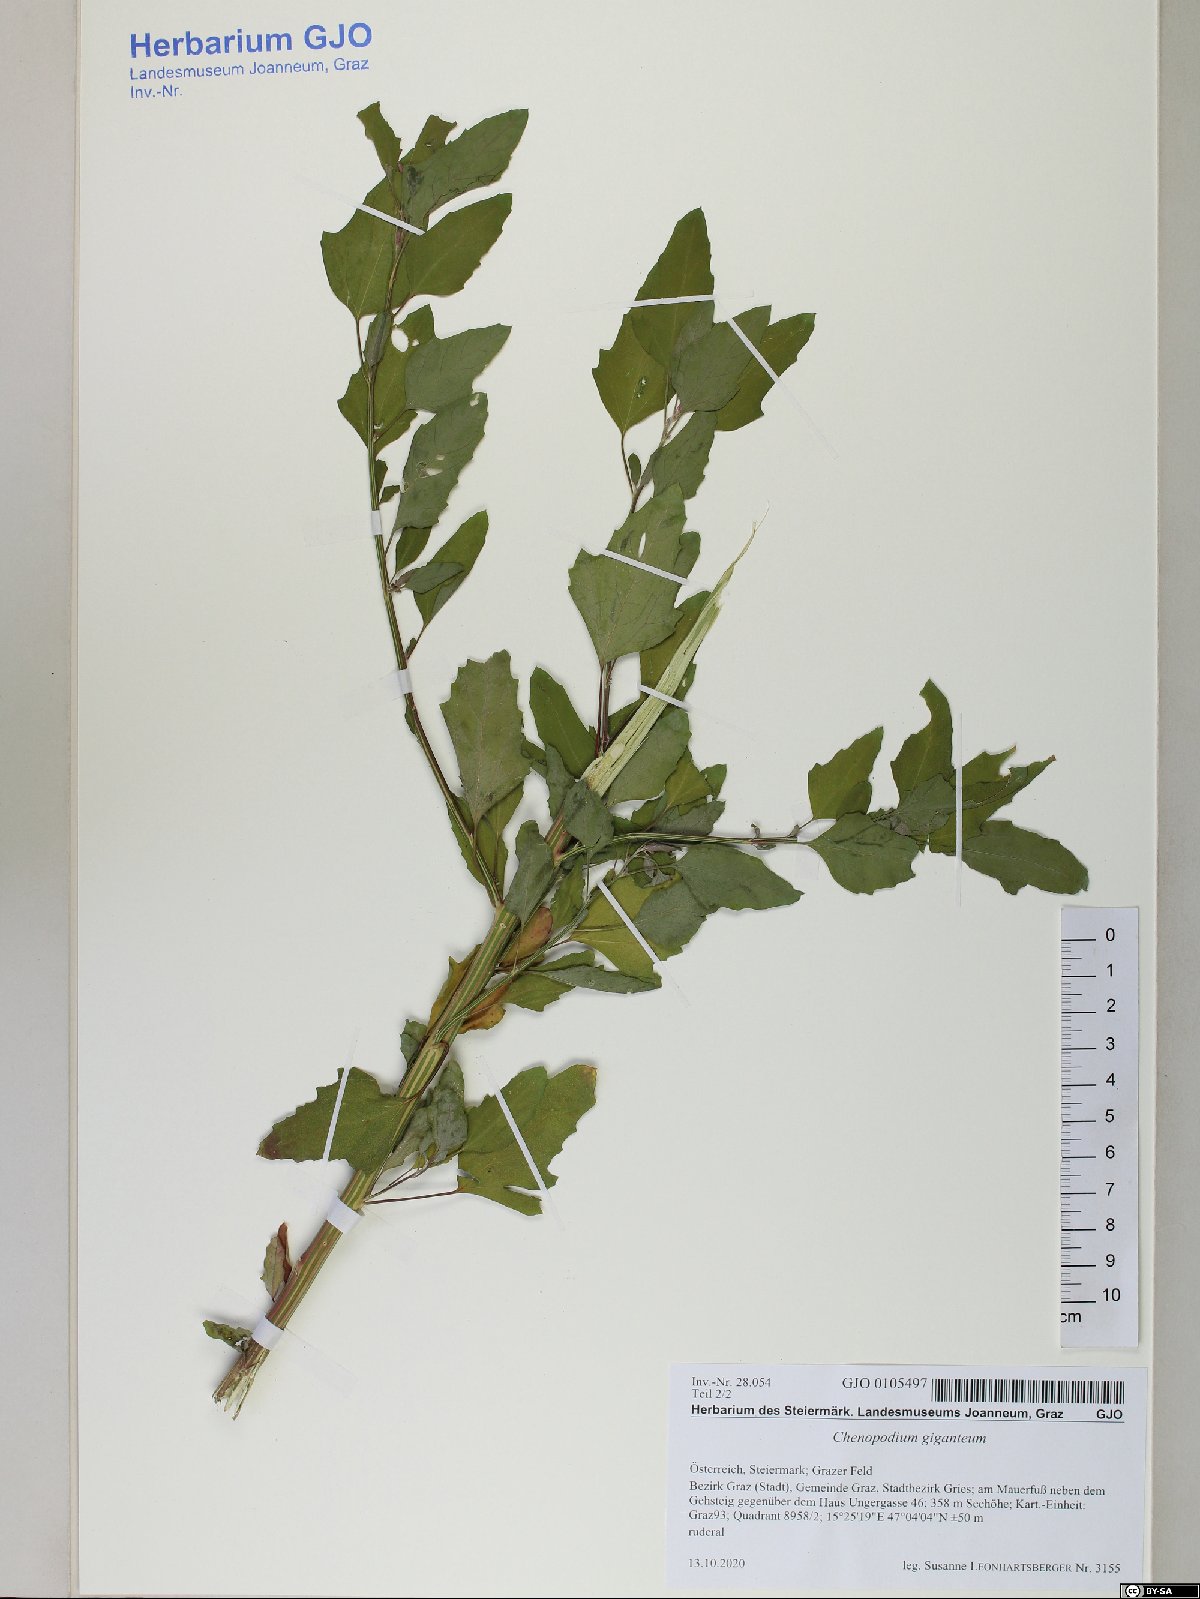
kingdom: Plantae
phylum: Tracheophyta
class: Magnoliopsida
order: Caryophyllales
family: Amaranthaceae
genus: Chenopodium
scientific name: Chenopodium giganteum
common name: Magentaspreen
